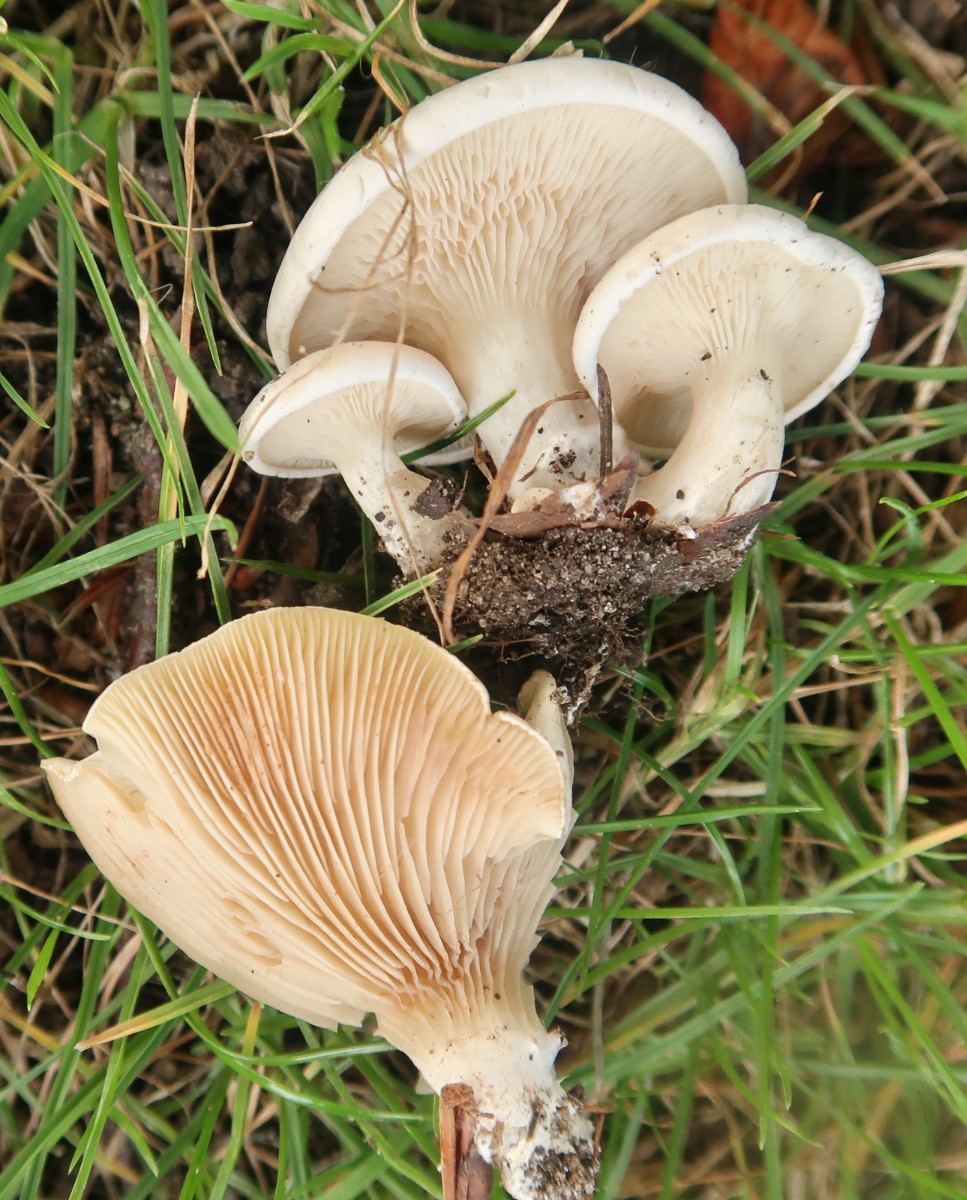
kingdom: Fungi
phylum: Basidiomycota
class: Agaricomycetes
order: Agaricales
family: Entolomataceae
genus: Clitopilus
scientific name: Clitopilus prunulus
